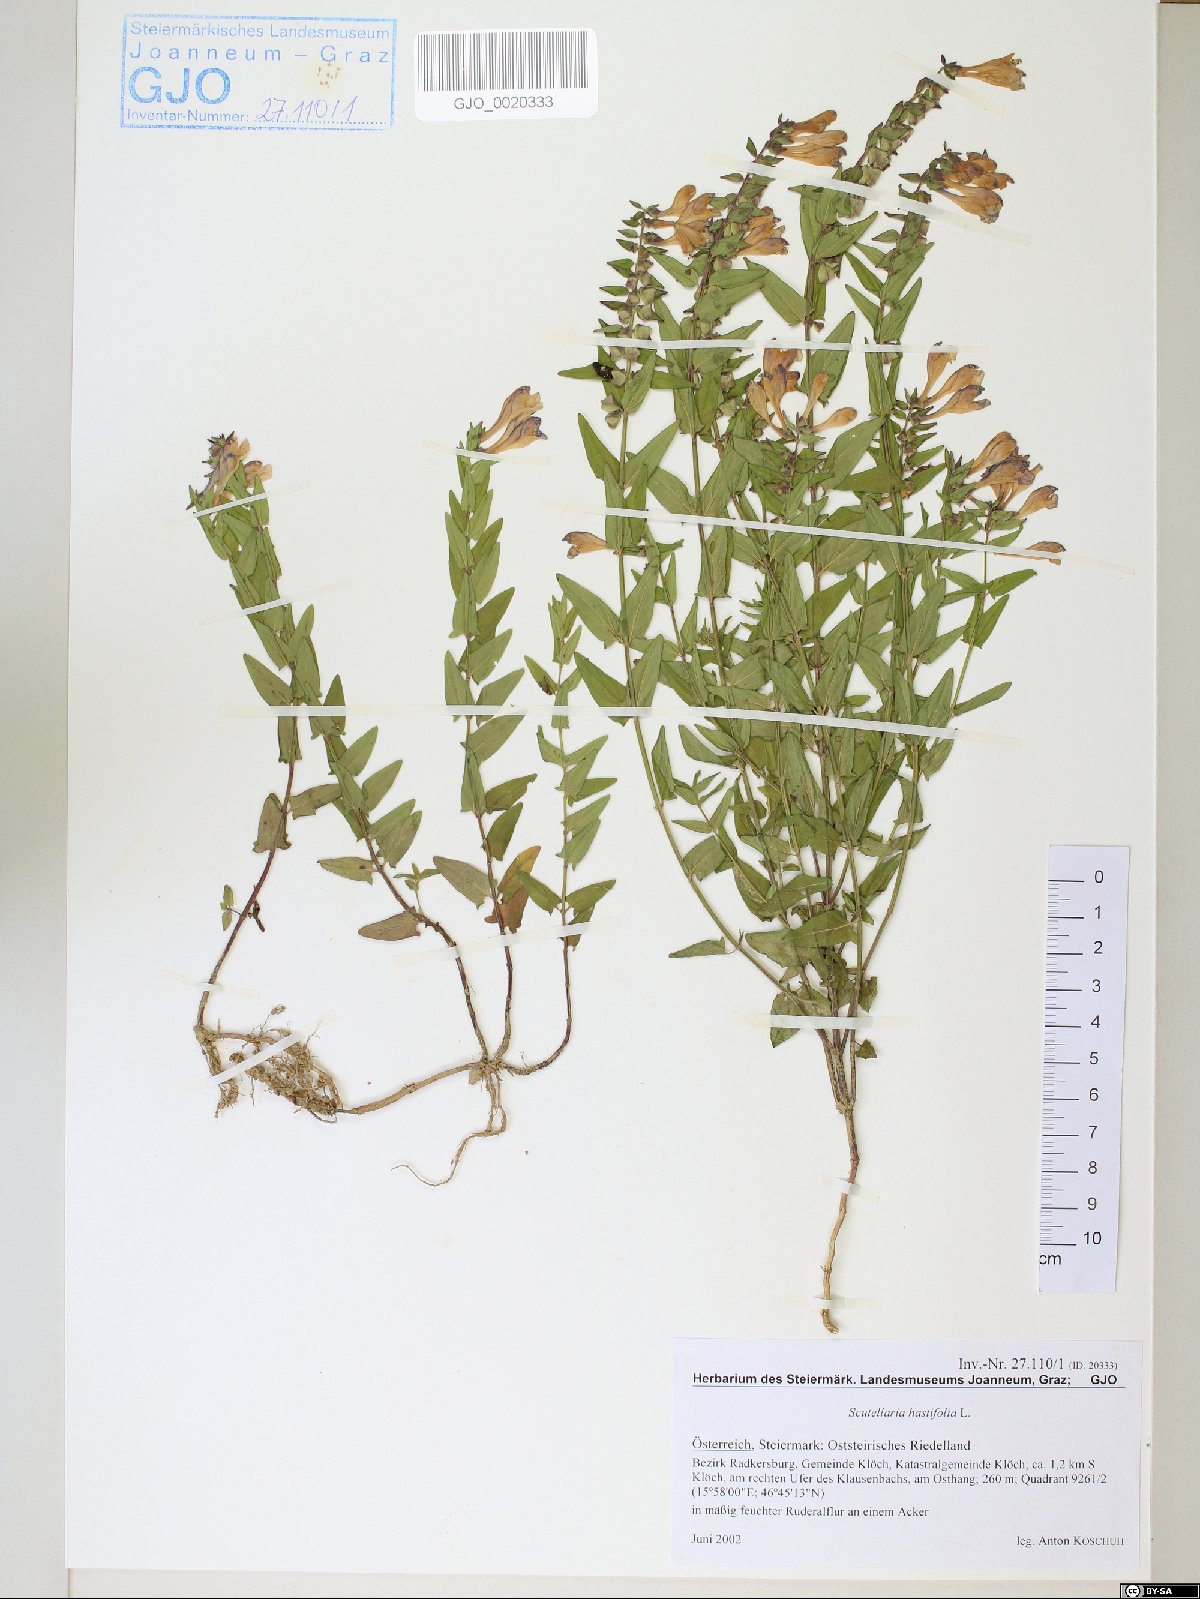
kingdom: Plantae
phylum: Tracheophyta
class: Magnoliopsida
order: Lamiales
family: Lamiaceae
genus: Scutellaria
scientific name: Scutellaria hastifolia
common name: Norfolk skullcap
